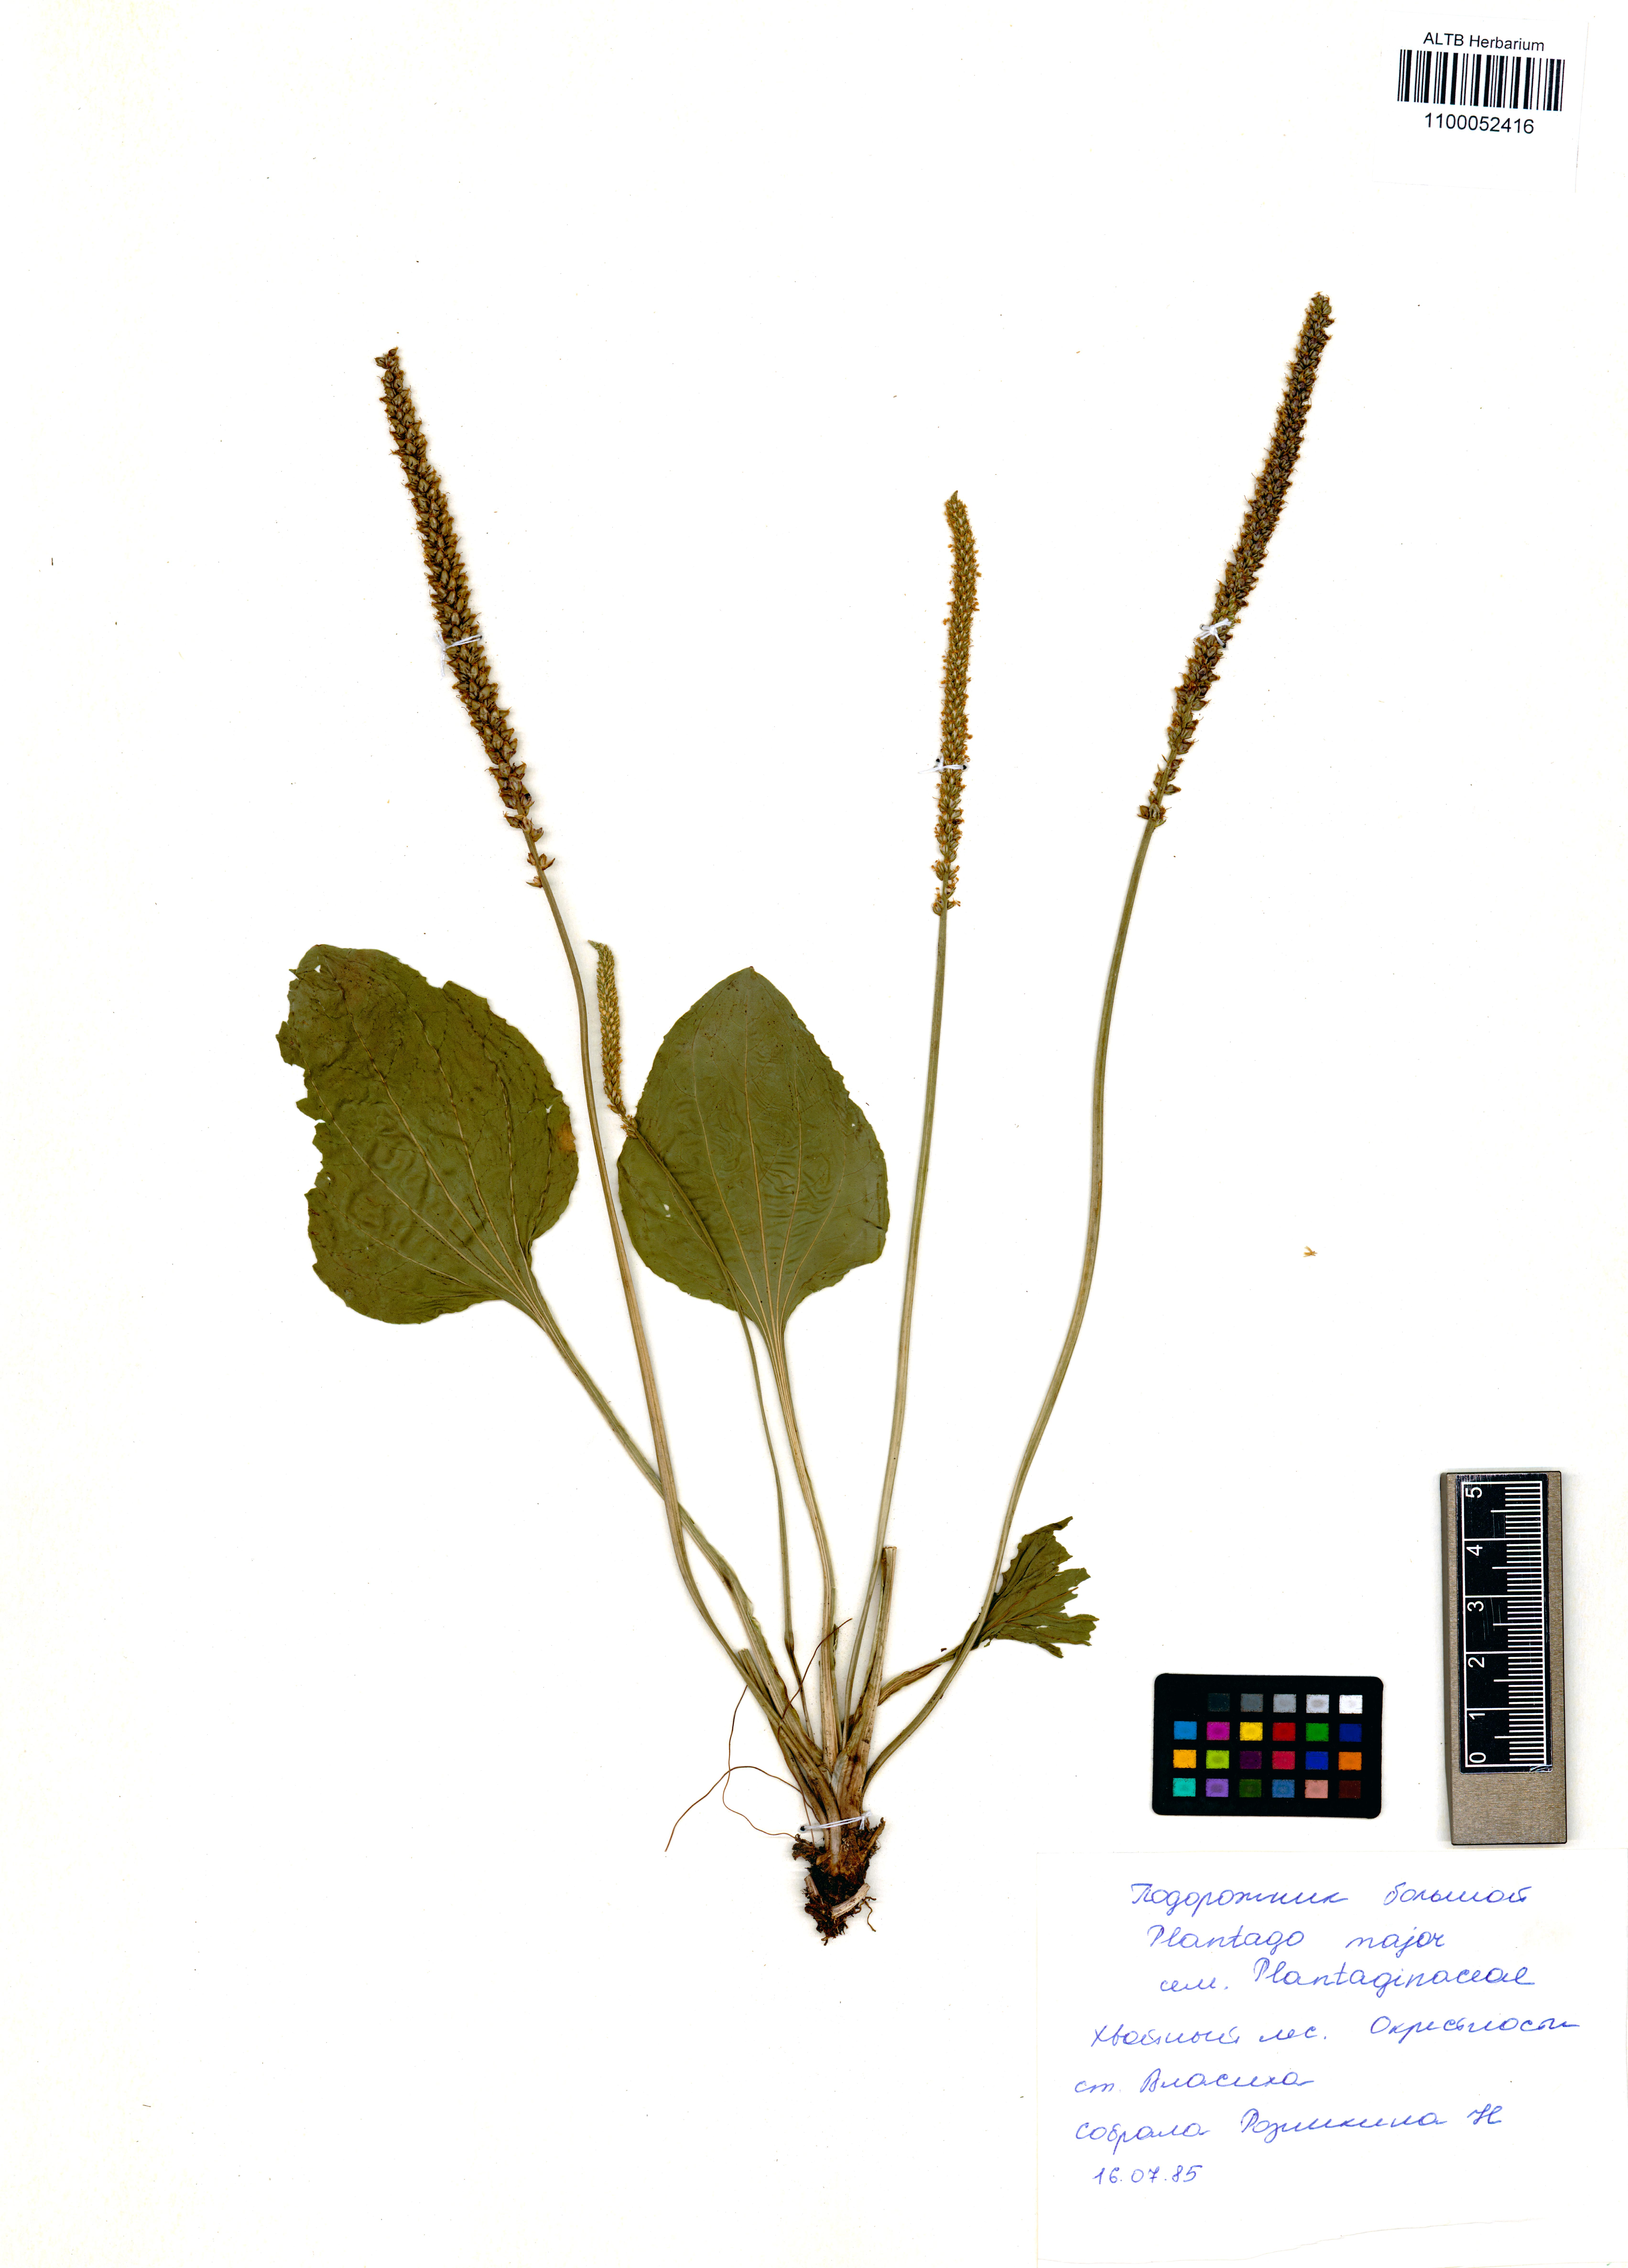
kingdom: Plantae
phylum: Tracheophyta
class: Magnoliopsida
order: Lamiales
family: Plantaginaceae
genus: Plantago
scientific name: Plantago major
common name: Common plantain
